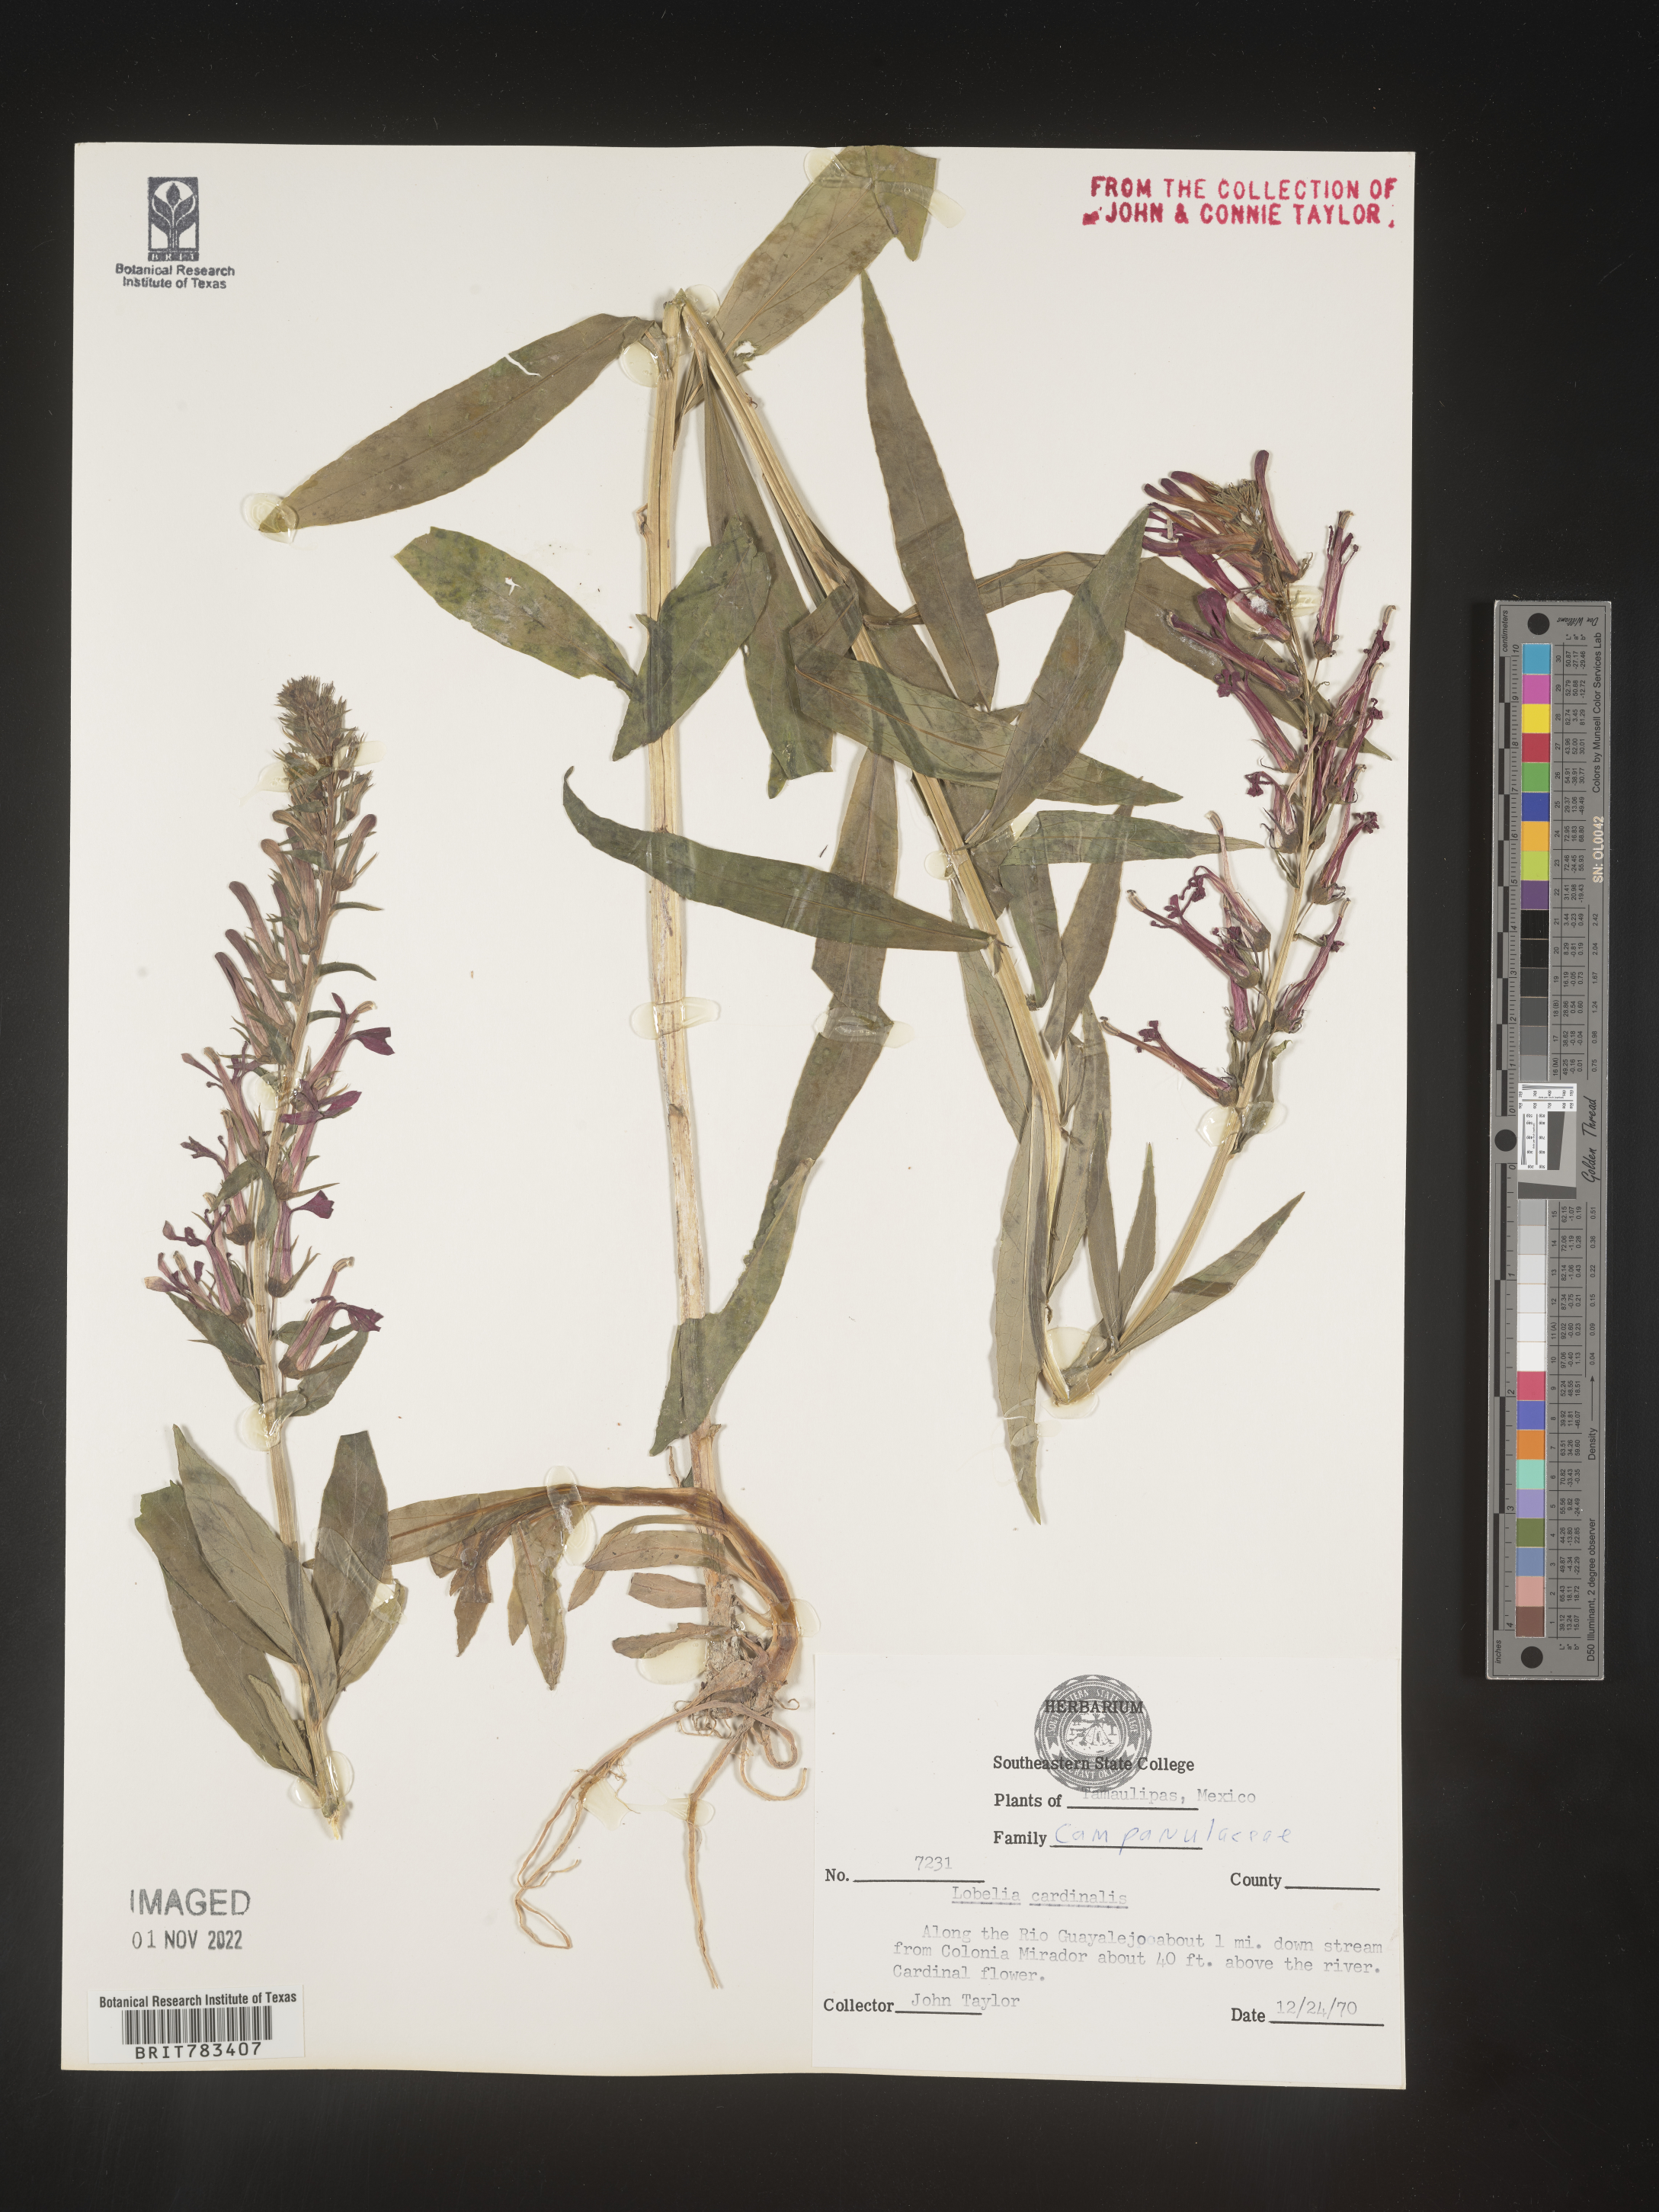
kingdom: Plantae
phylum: Tracheophyta
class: Magnoliopsida
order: Asterales
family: Campanulaceae
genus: Lobelia
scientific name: Lobelia
